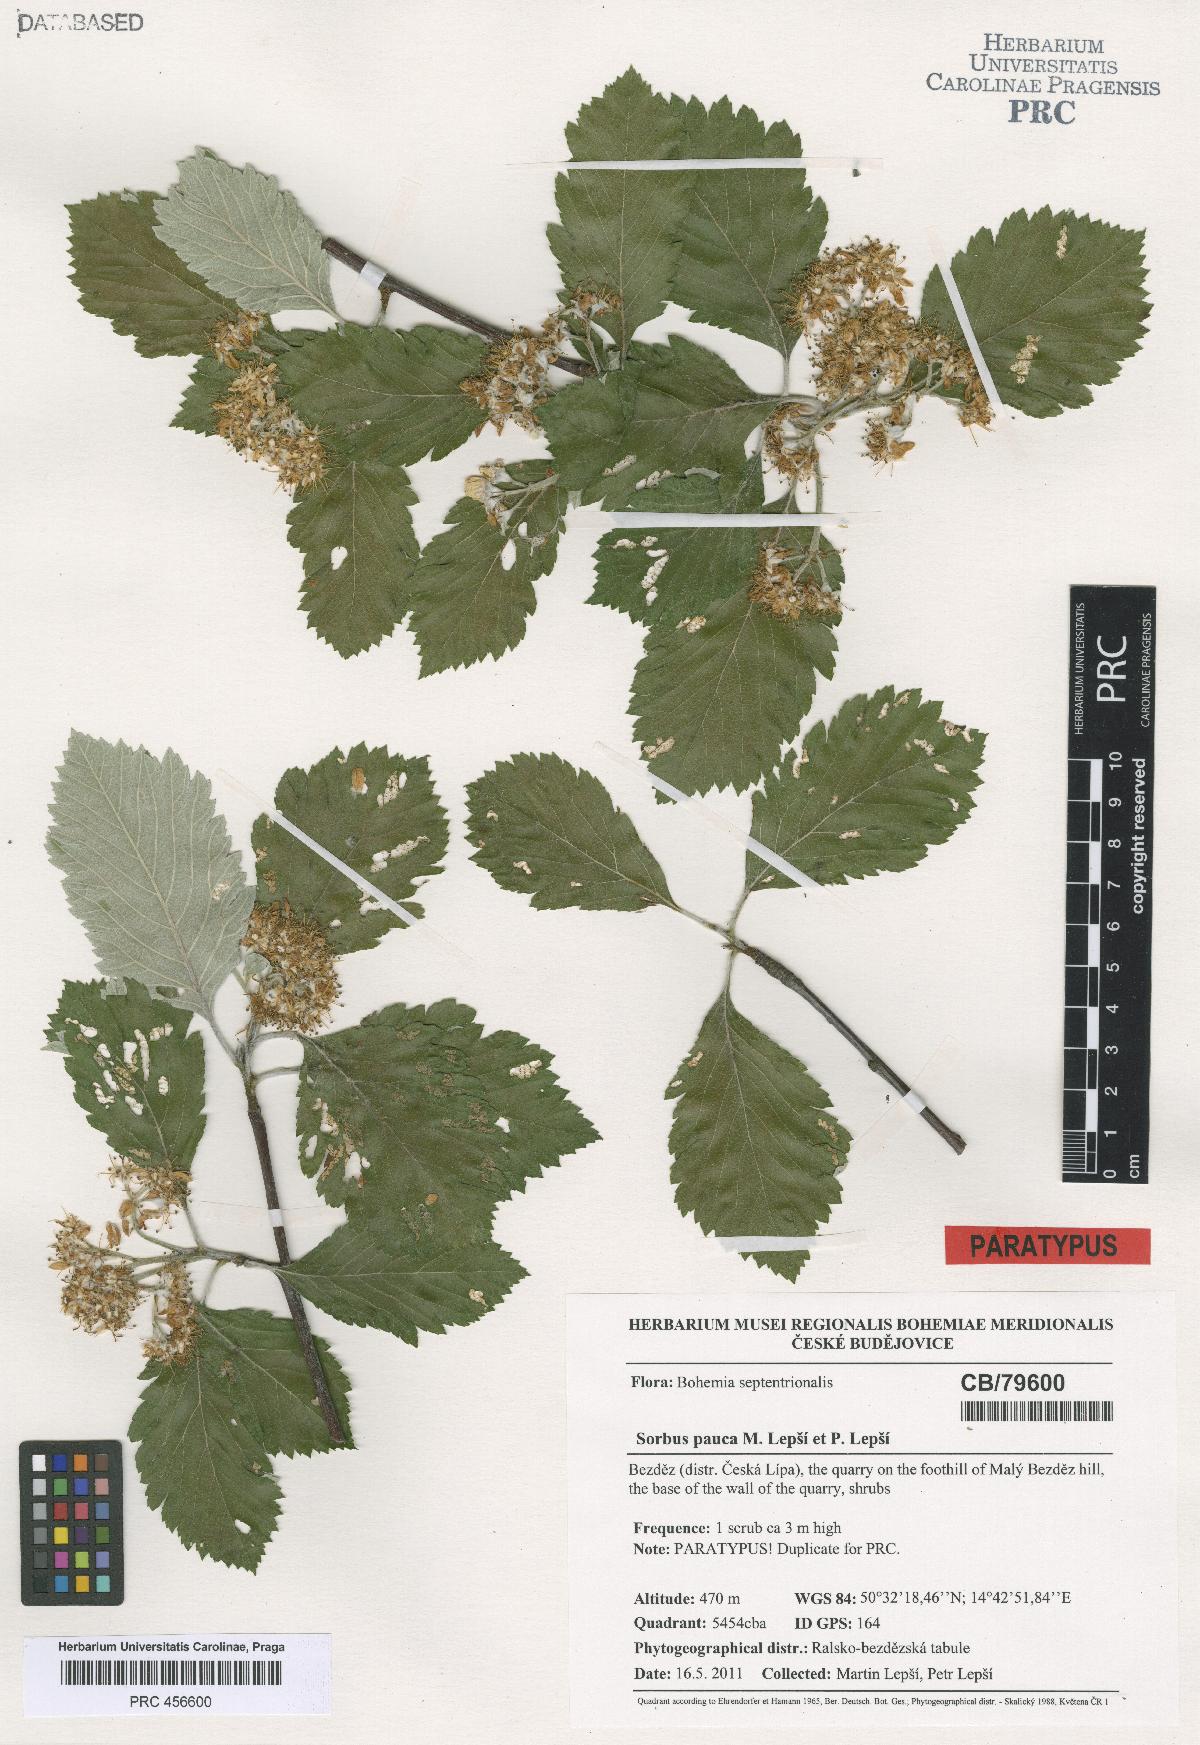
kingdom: Plantae
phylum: Tracheophyta
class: Magnoliopsida
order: Rosales
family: Rosaceae
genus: Hedlundia
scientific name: Hedlundia pauca
